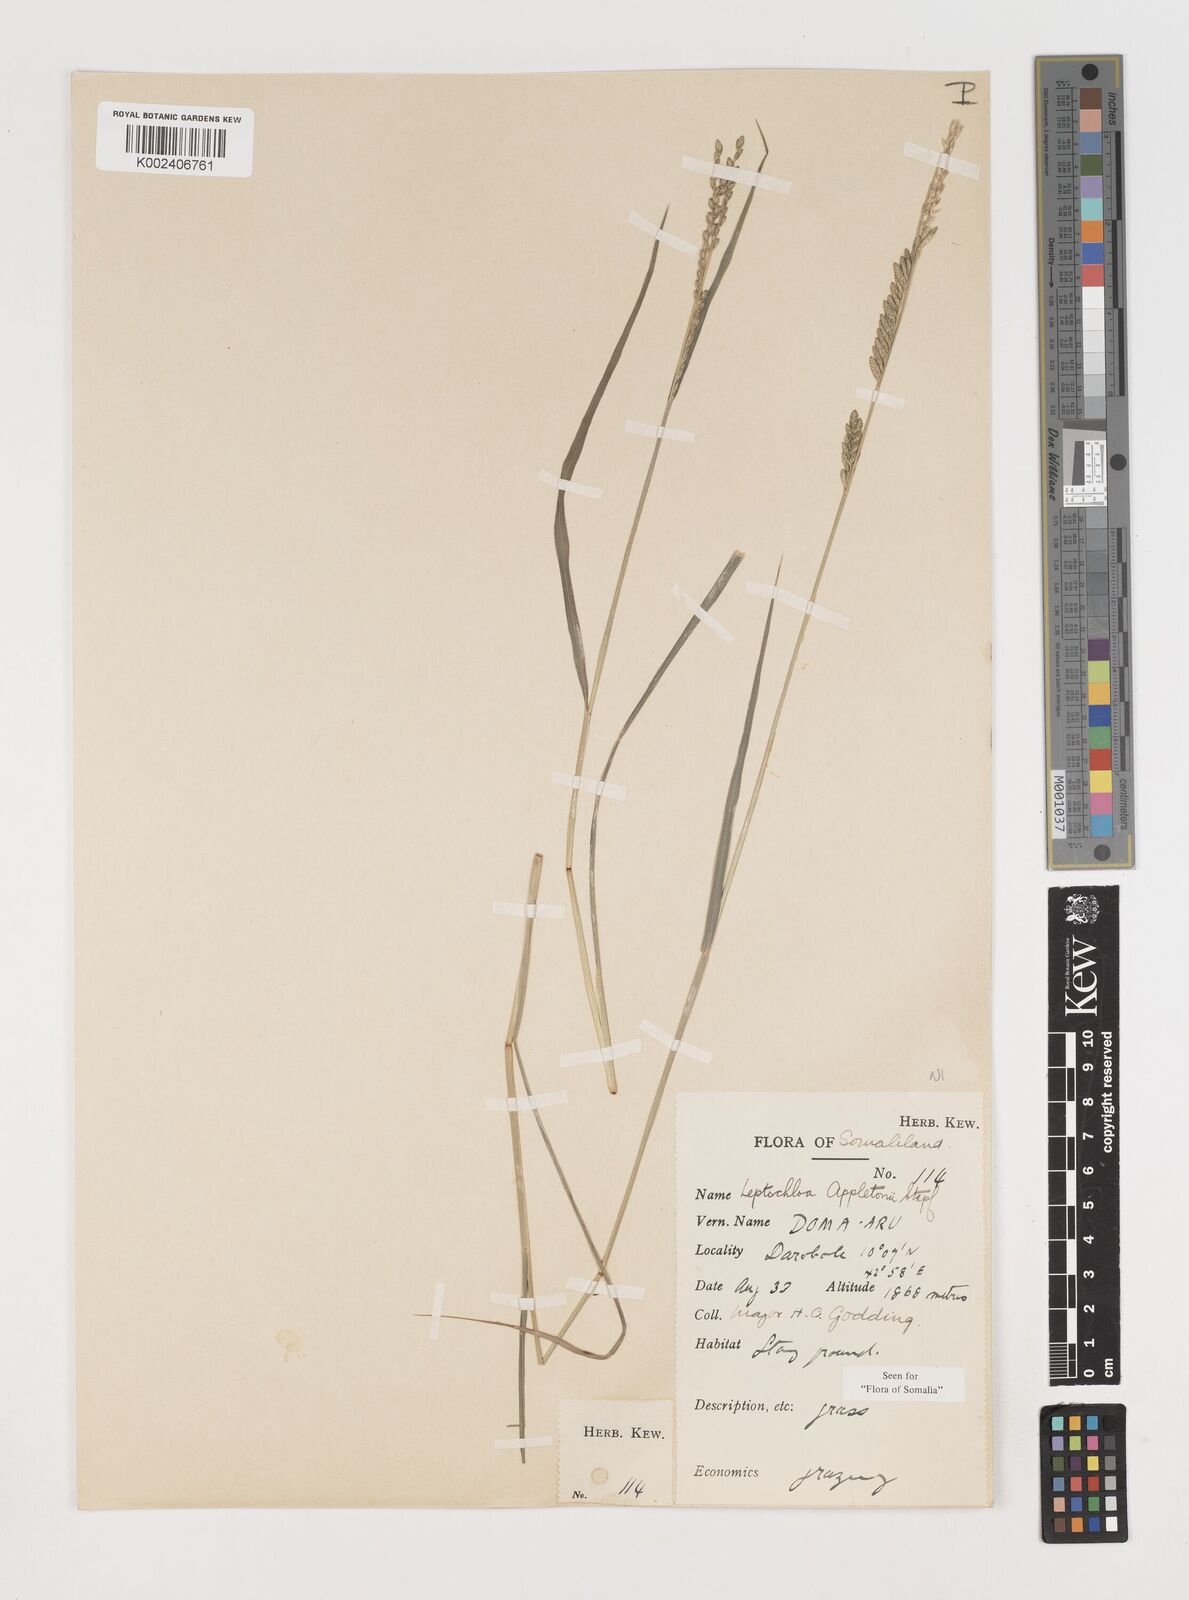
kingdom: Plantae
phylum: Tracheophyta
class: Liliopsida
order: Poales
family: Poaceae
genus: Disakisperma
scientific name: Disakisperma yemenicum
